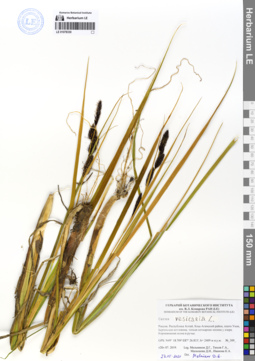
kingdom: Plantae
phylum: Tracheophyta
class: Liliopsida
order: Poales
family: Cyperaceae
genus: Carex
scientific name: Carex vesicaria
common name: Bladder-sedge
